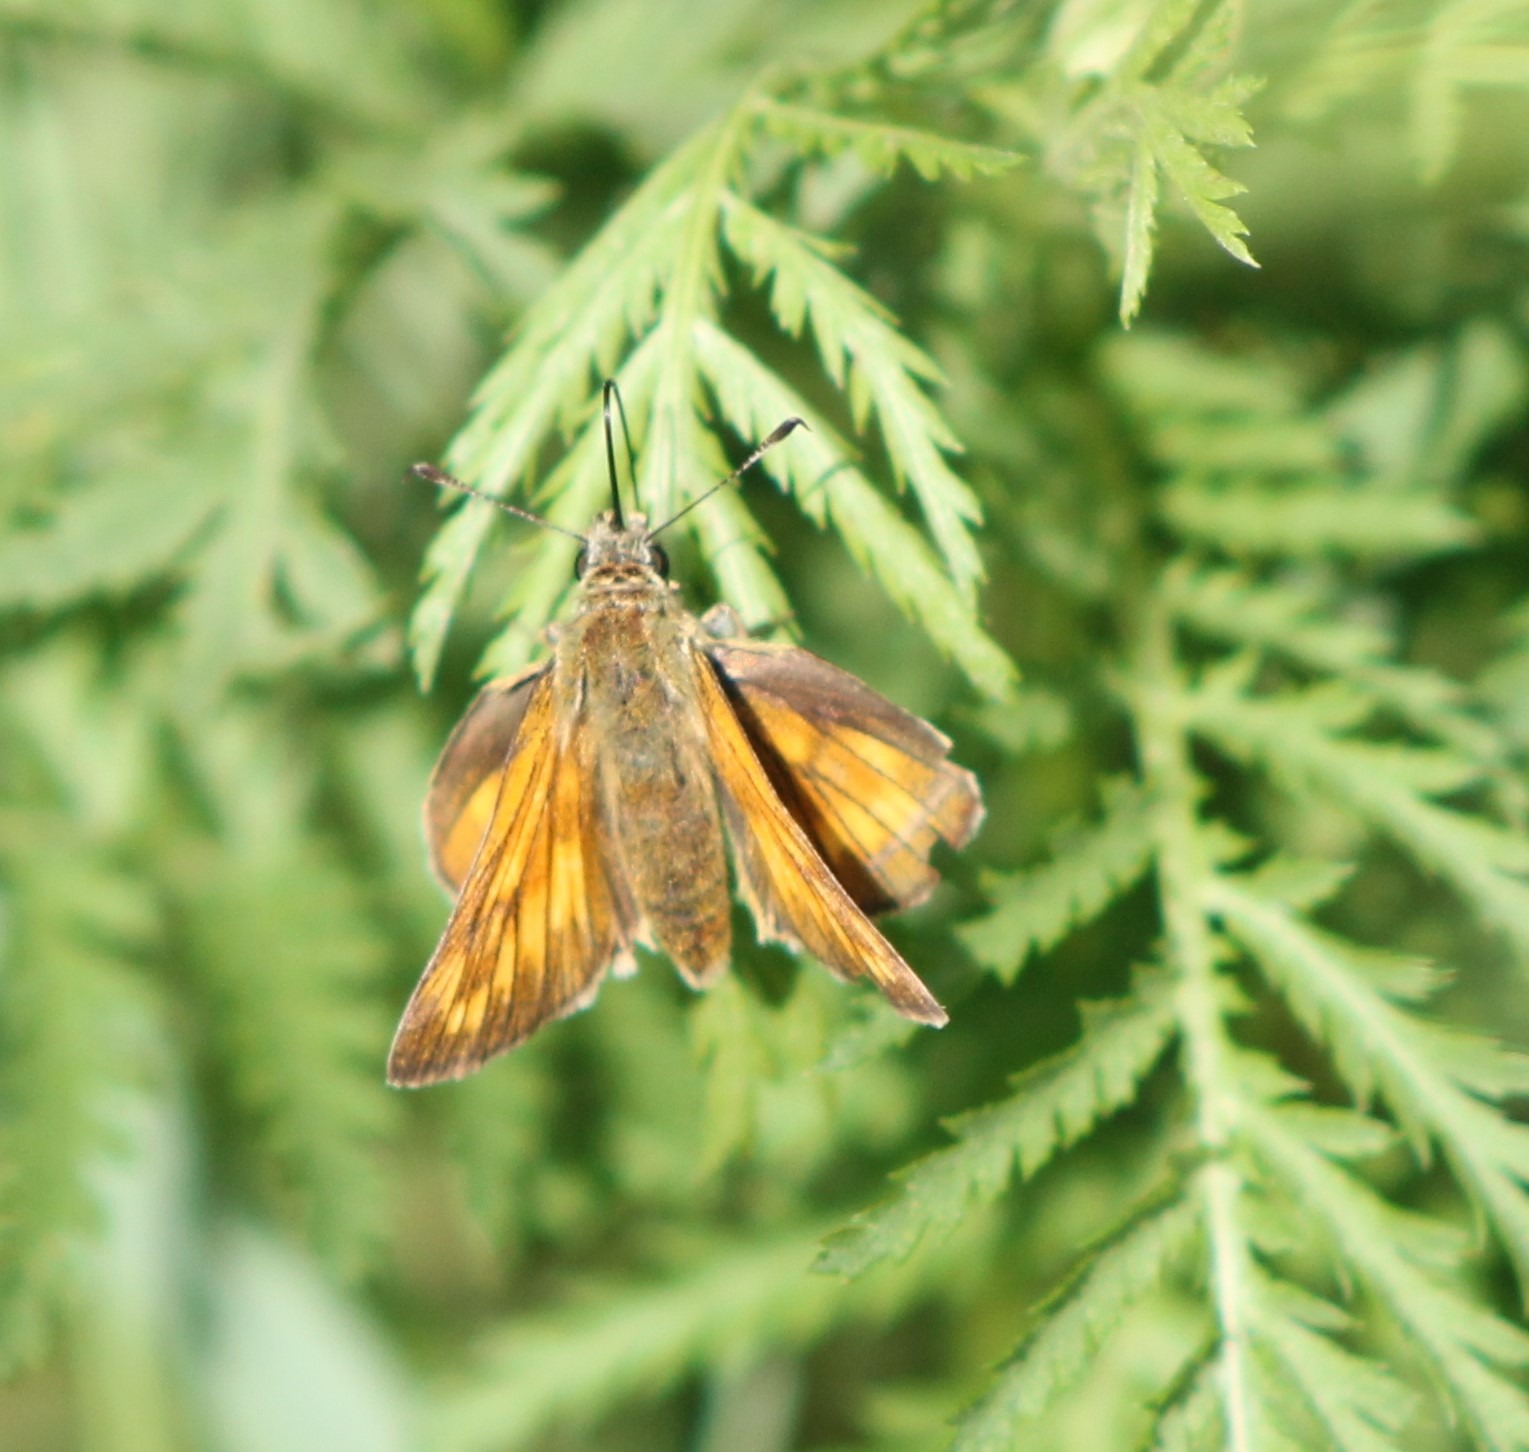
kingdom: Animalia
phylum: Arthropoda
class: Insecta
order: Lepidoptera
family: Hesperiidae
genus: Ochlodes
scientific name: Ochlodes venata
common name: Stor bredpande
